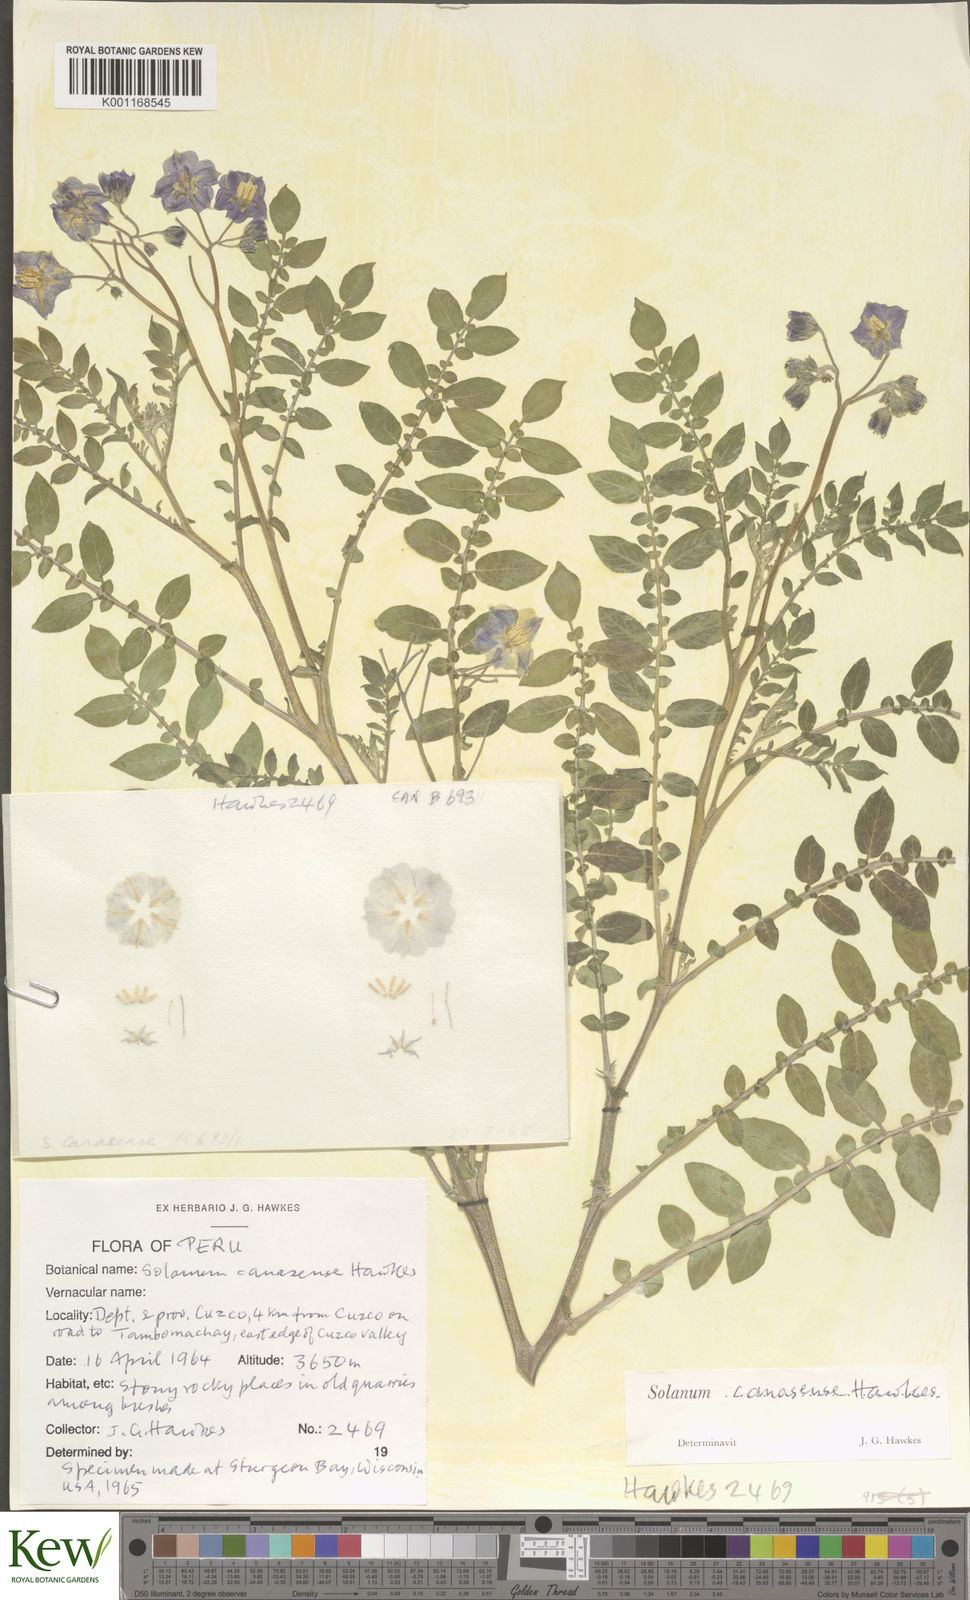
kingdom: Plantae
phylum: Tracheophyta
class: Magnoliopsida
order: Solanales
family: Solanaceae
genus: Solanum
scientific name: Solanum candolleanum
